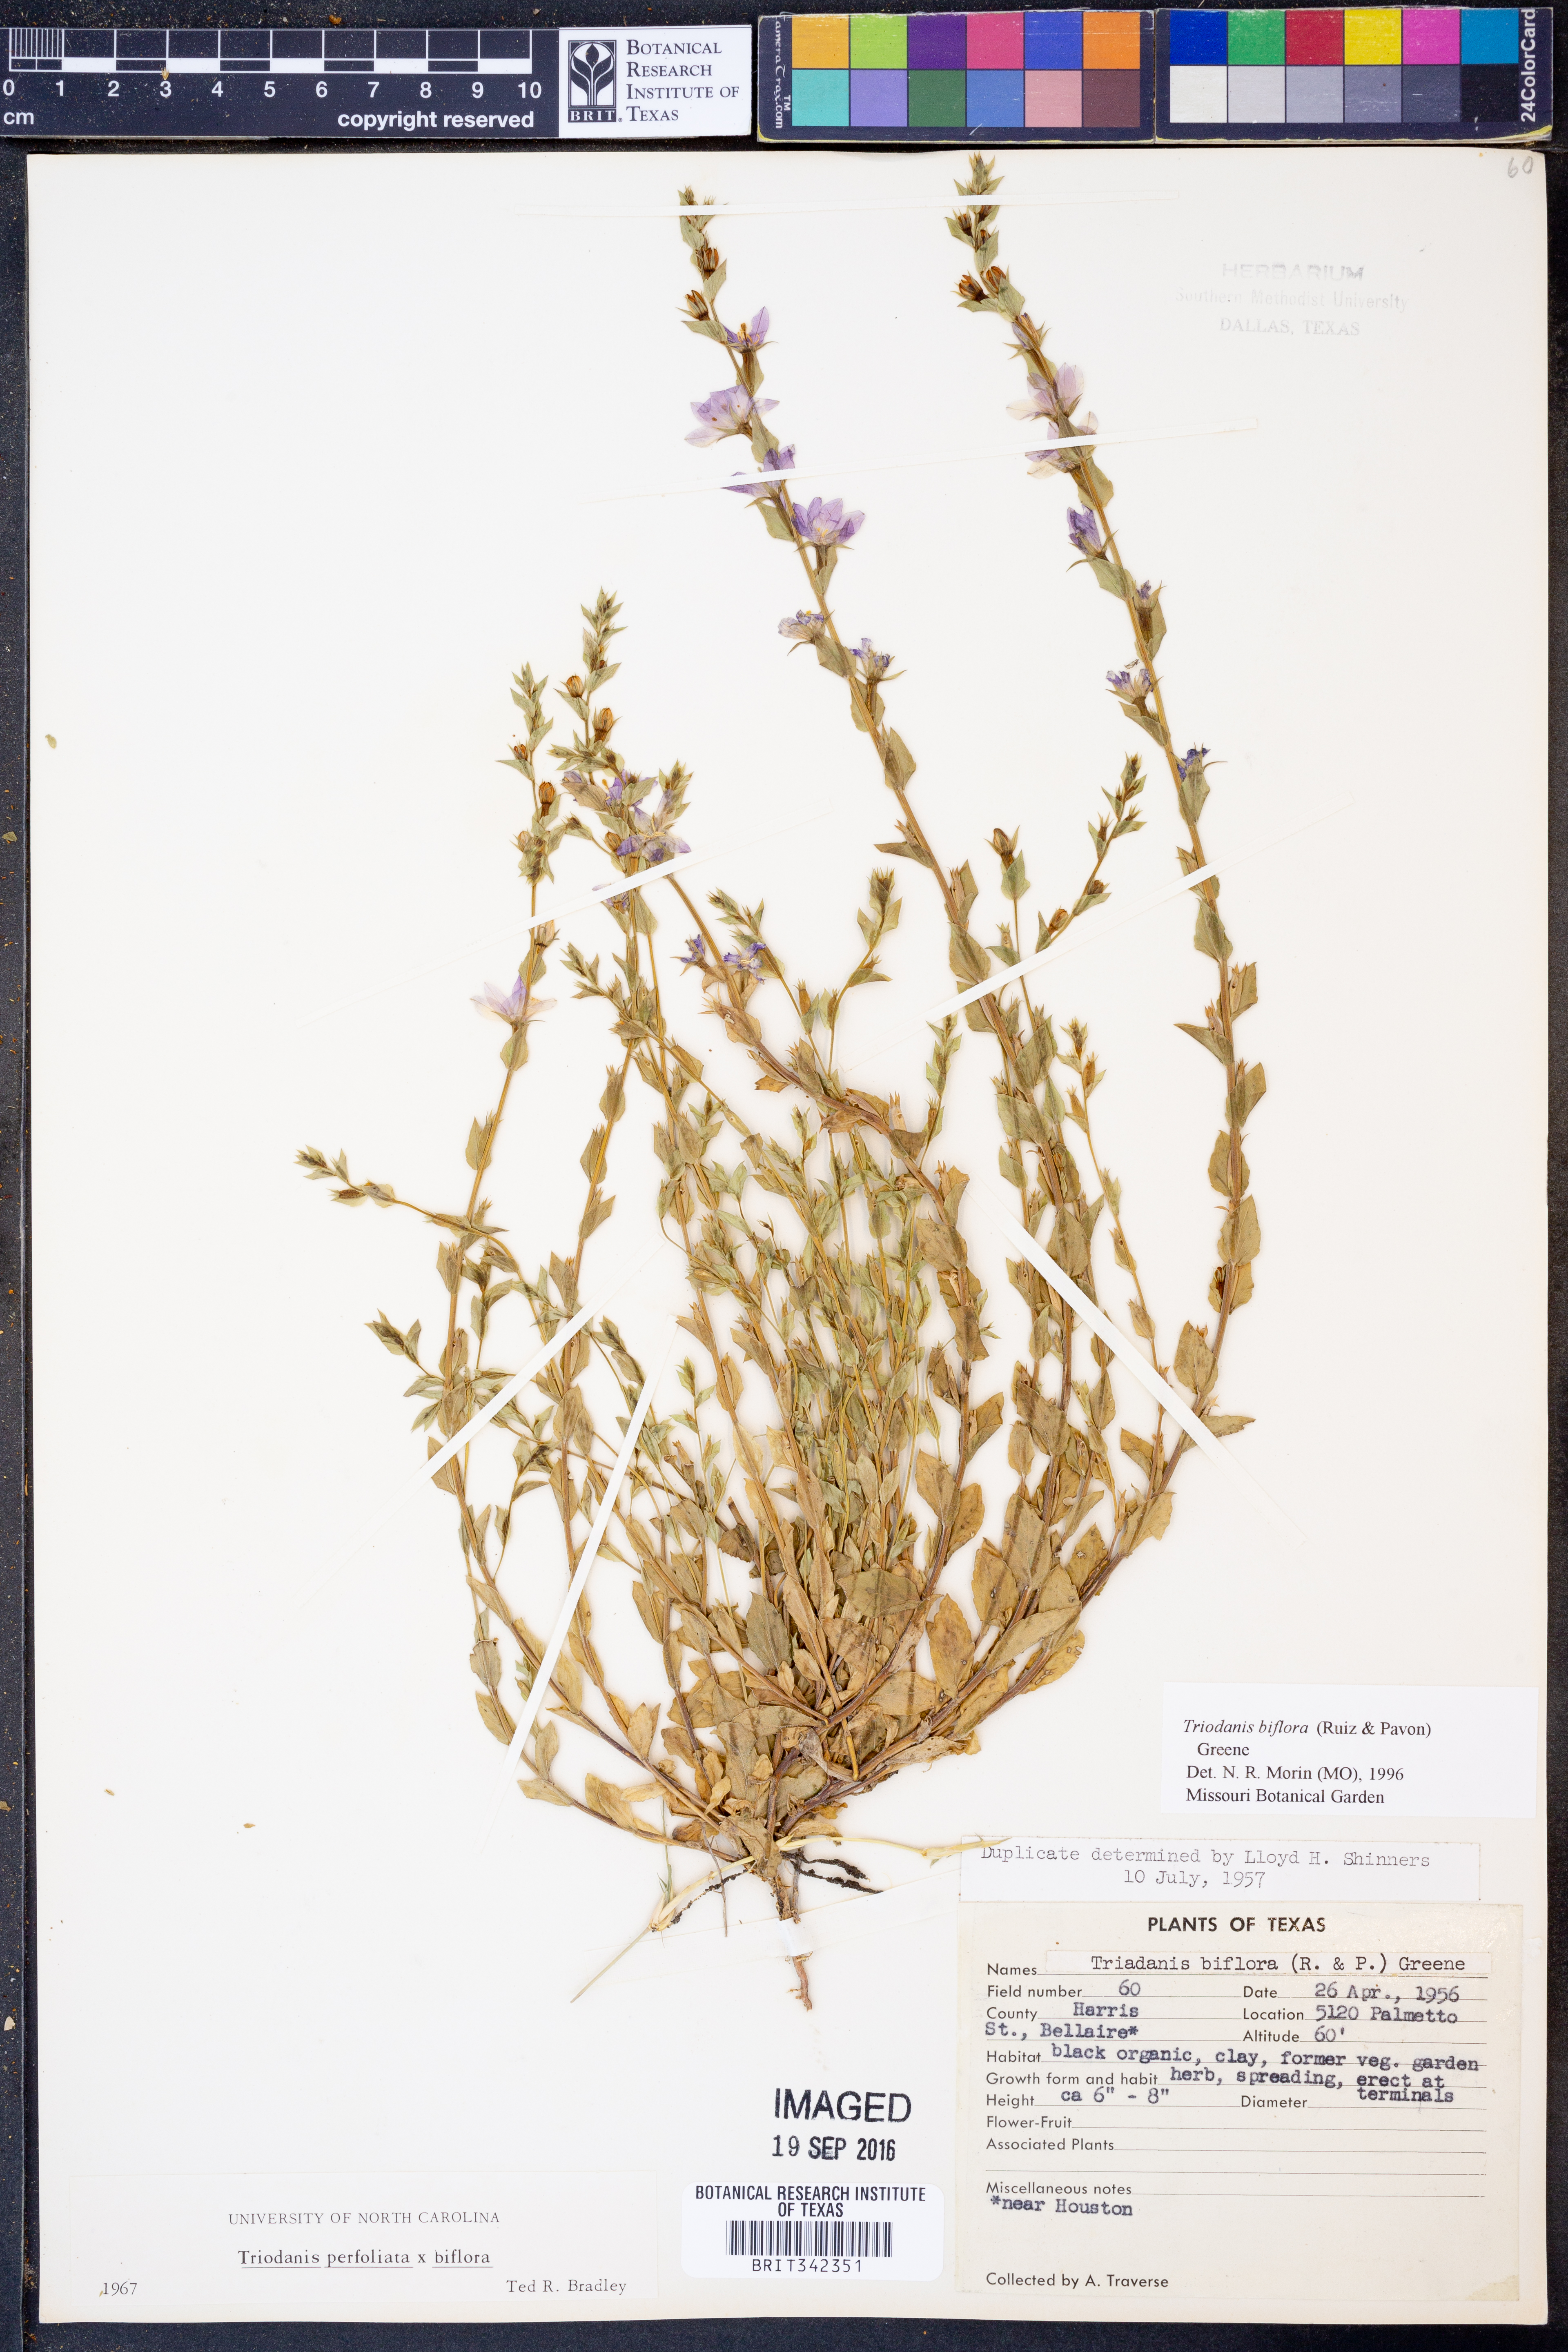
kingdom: Plantae
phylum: Tracheophyta
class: Magnoliopsida
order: Asterales
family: Campanulaceae
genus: Triodanis
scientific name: Triodanis perfoliata
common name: Clasping venus' looking-glass
